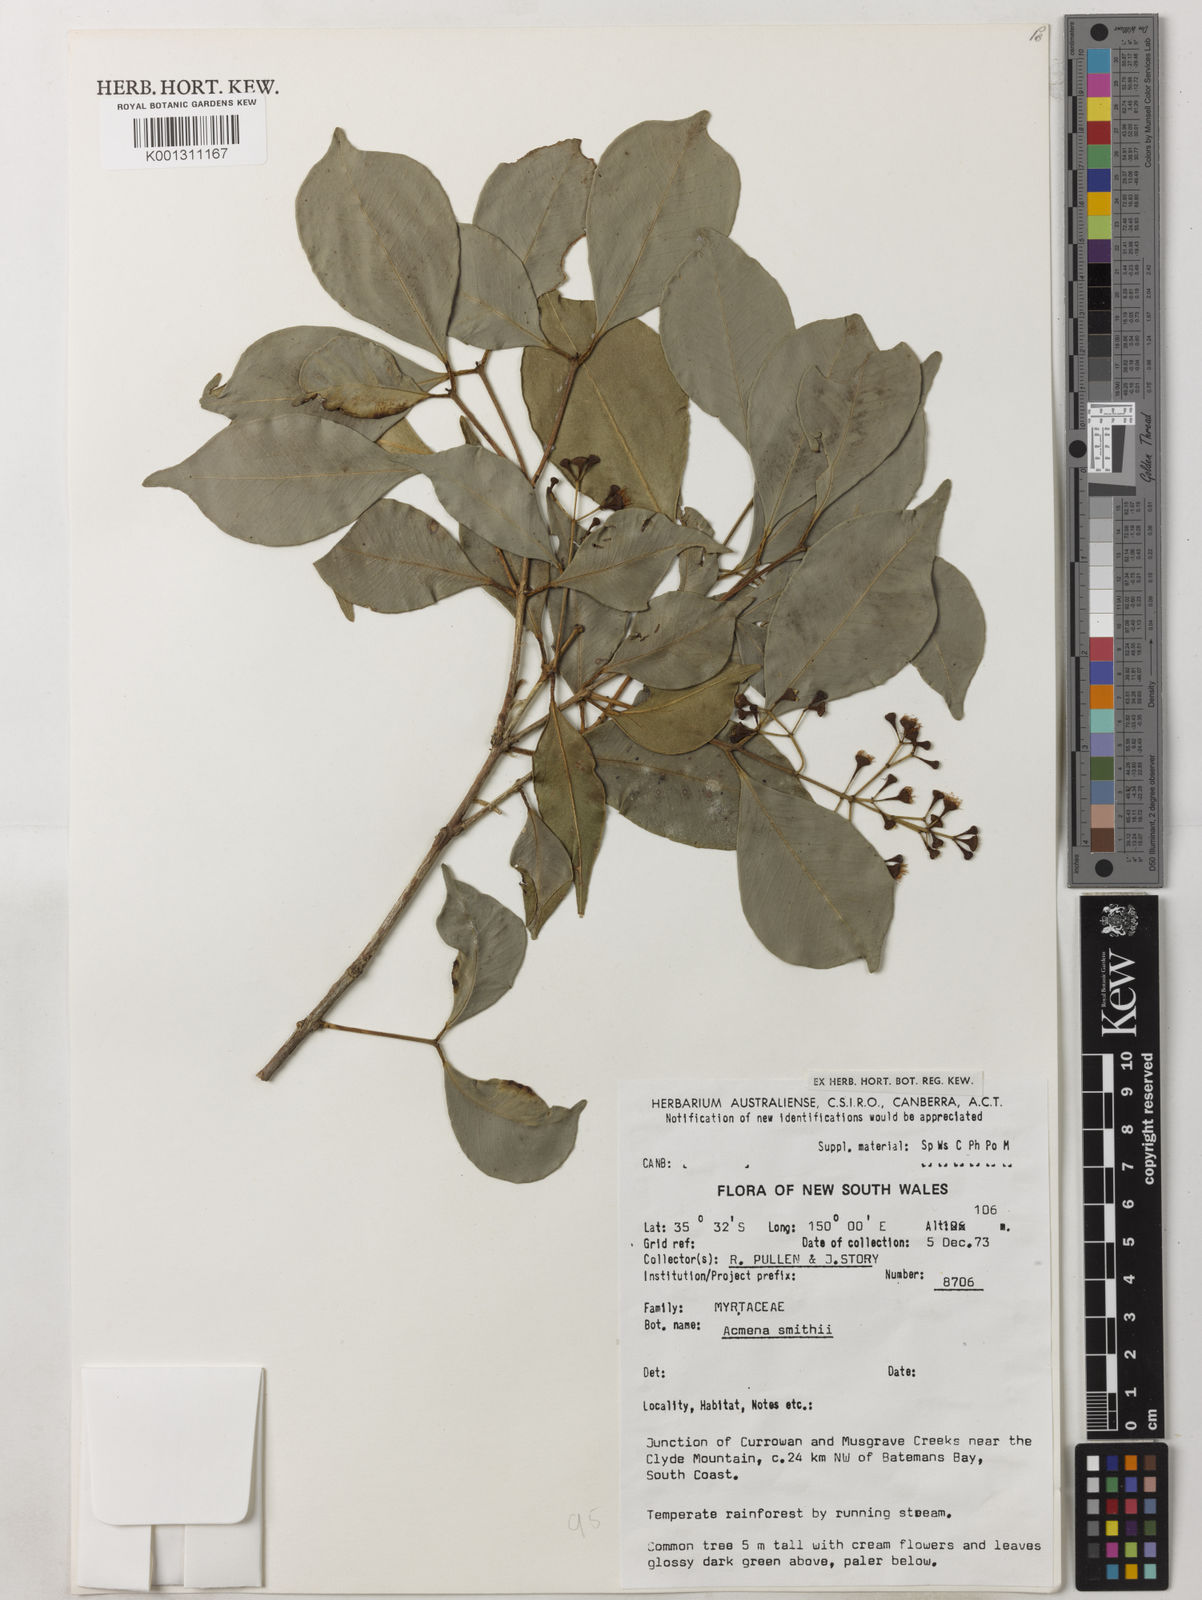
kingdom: Plantae
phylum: Tracheophyta
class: Magnoliopsida
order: Myrtales
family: Myrtaceae
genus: Syzygium
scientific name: Syzygium smithii
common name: Lilly-pilly
